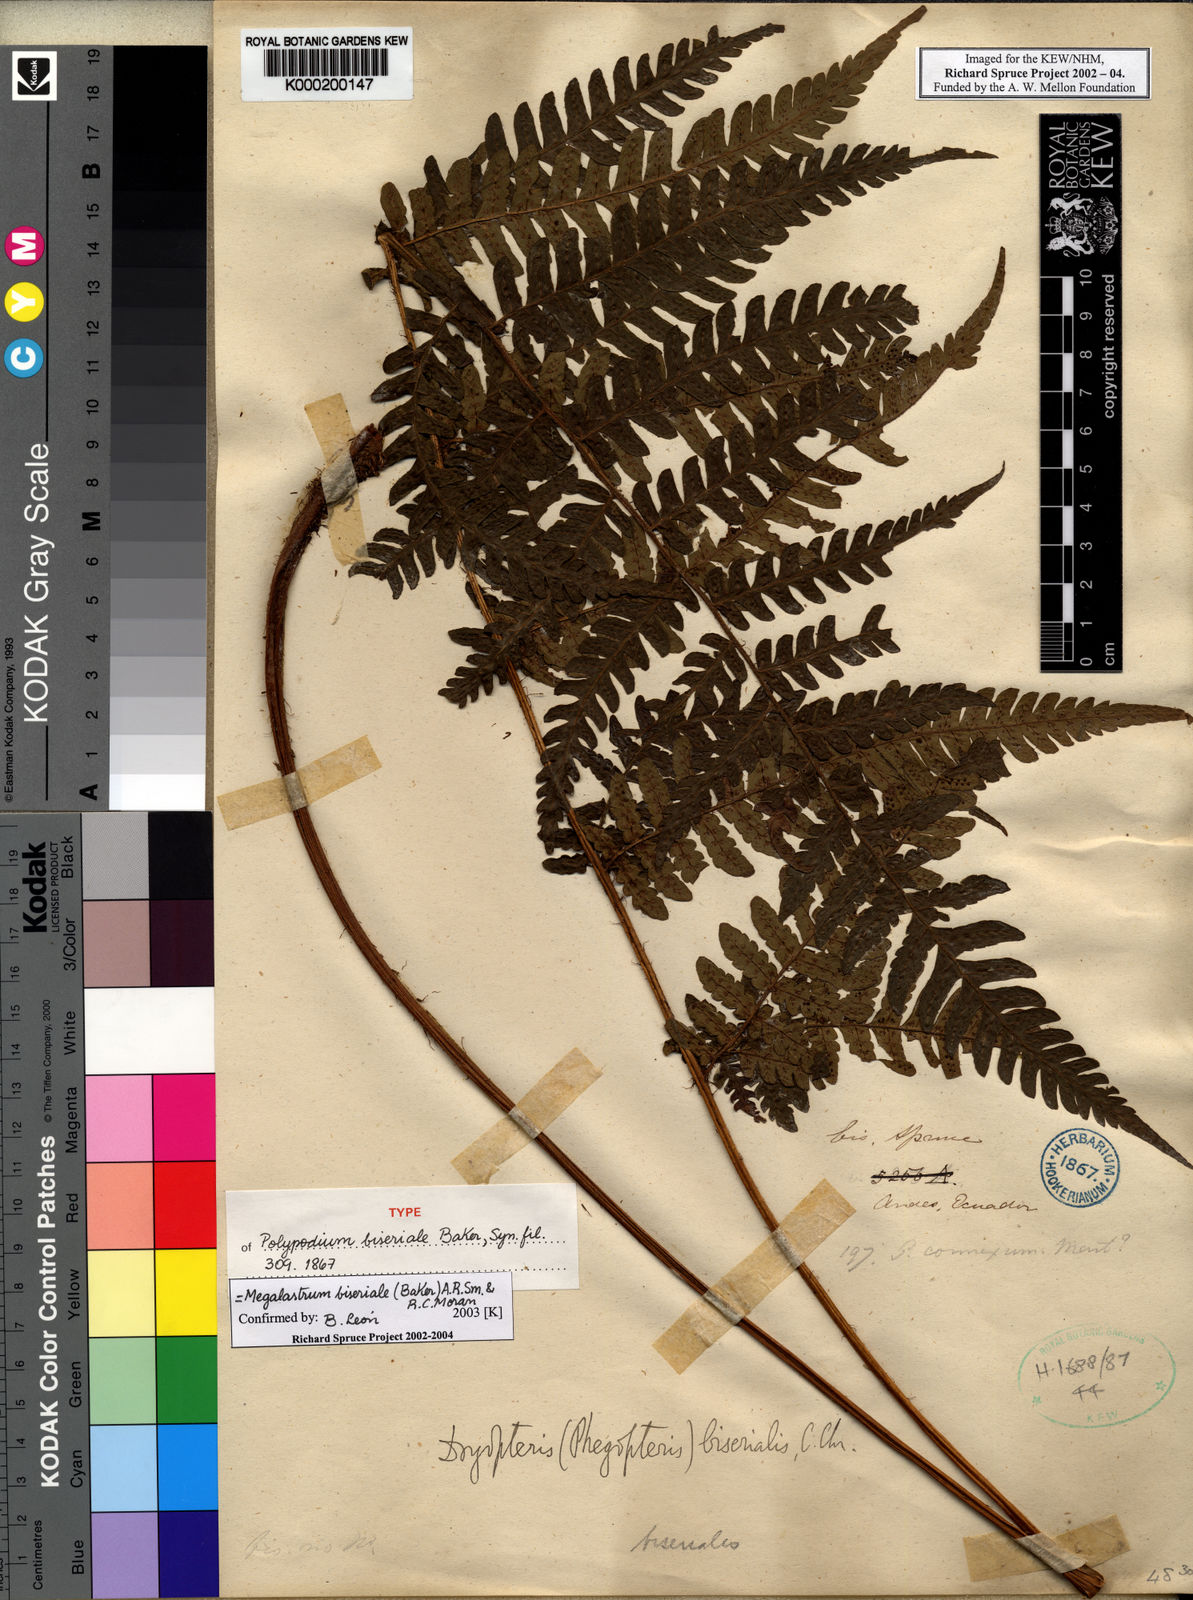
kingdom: Plantae
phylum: Tracheophyta
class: Polypodiopsida
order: Polypodiales
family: Dryopteridaceae
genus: Megalastrum
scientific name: Megalastrum biseriale
